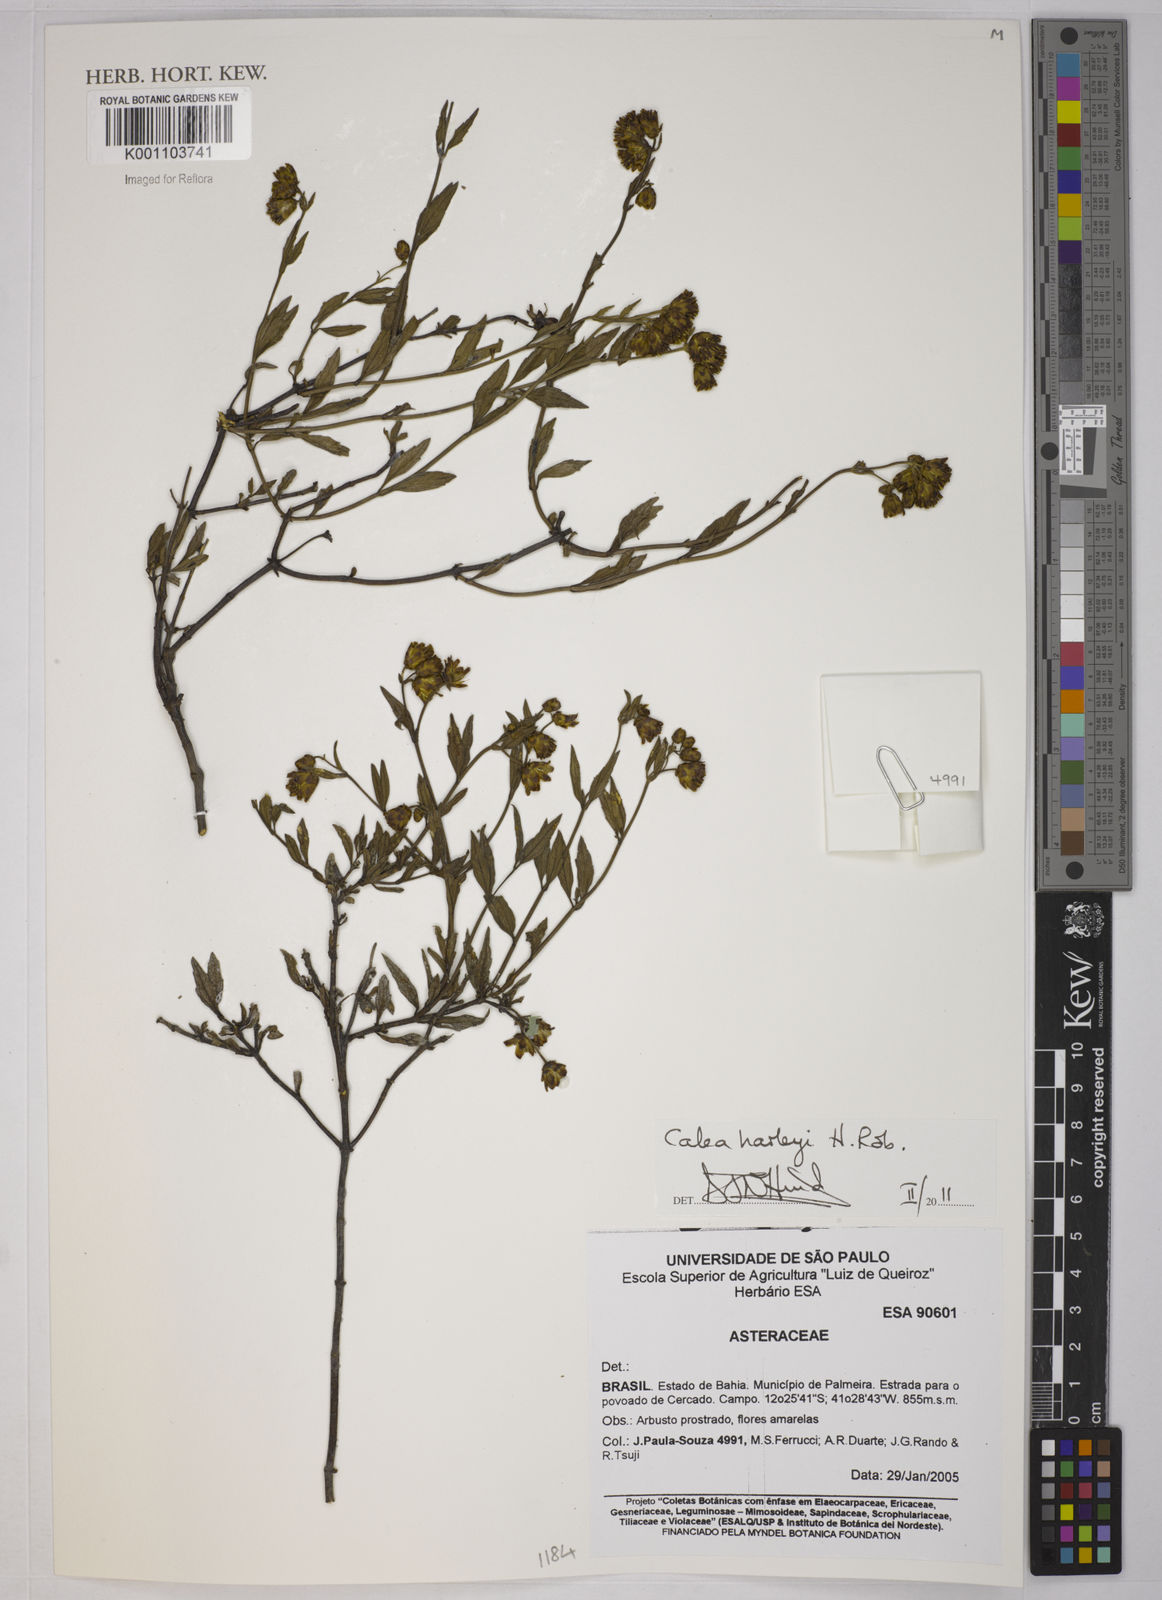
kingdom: Plantae
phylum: Tracheophyta
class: Magnoliopsida
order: Asterales
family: Asteraceae
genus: Calea
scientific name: Calea harleyi
